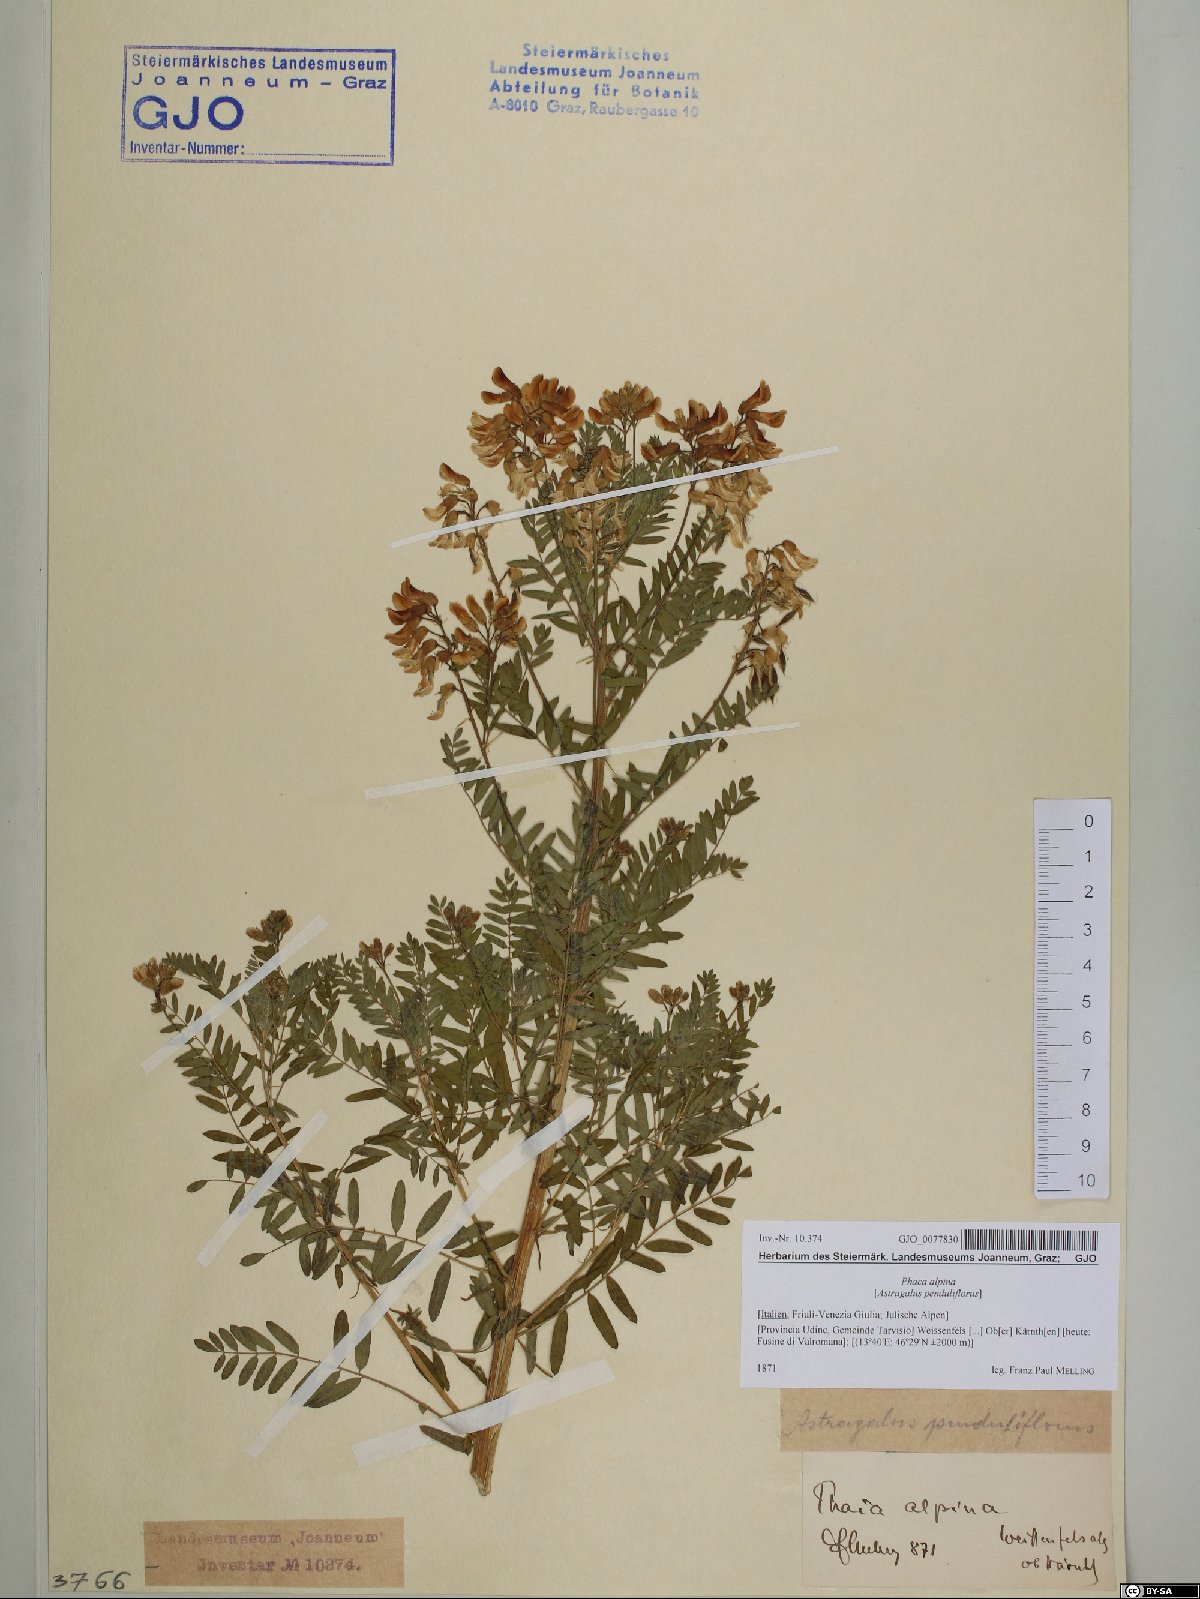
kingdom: Plantae
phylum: Tracheophyta
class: Magnoliopsida
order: Fabales
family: Fabaceae
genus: Astragalus
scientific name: Astragalus penduliflorus
